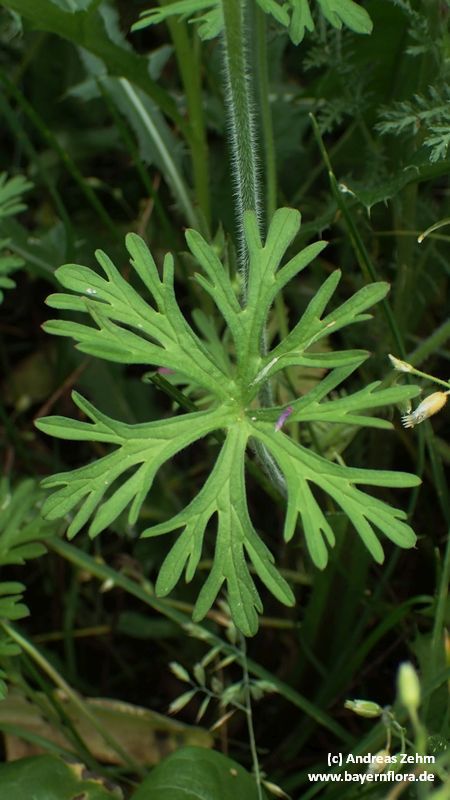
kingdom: Plantae
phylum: Tracheophyta
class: Magnoliopsida
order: Geraniales
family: Geraniaceae
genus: Geranium
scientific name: Geranium dissectum
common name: Cut-leaved crane's-bill
